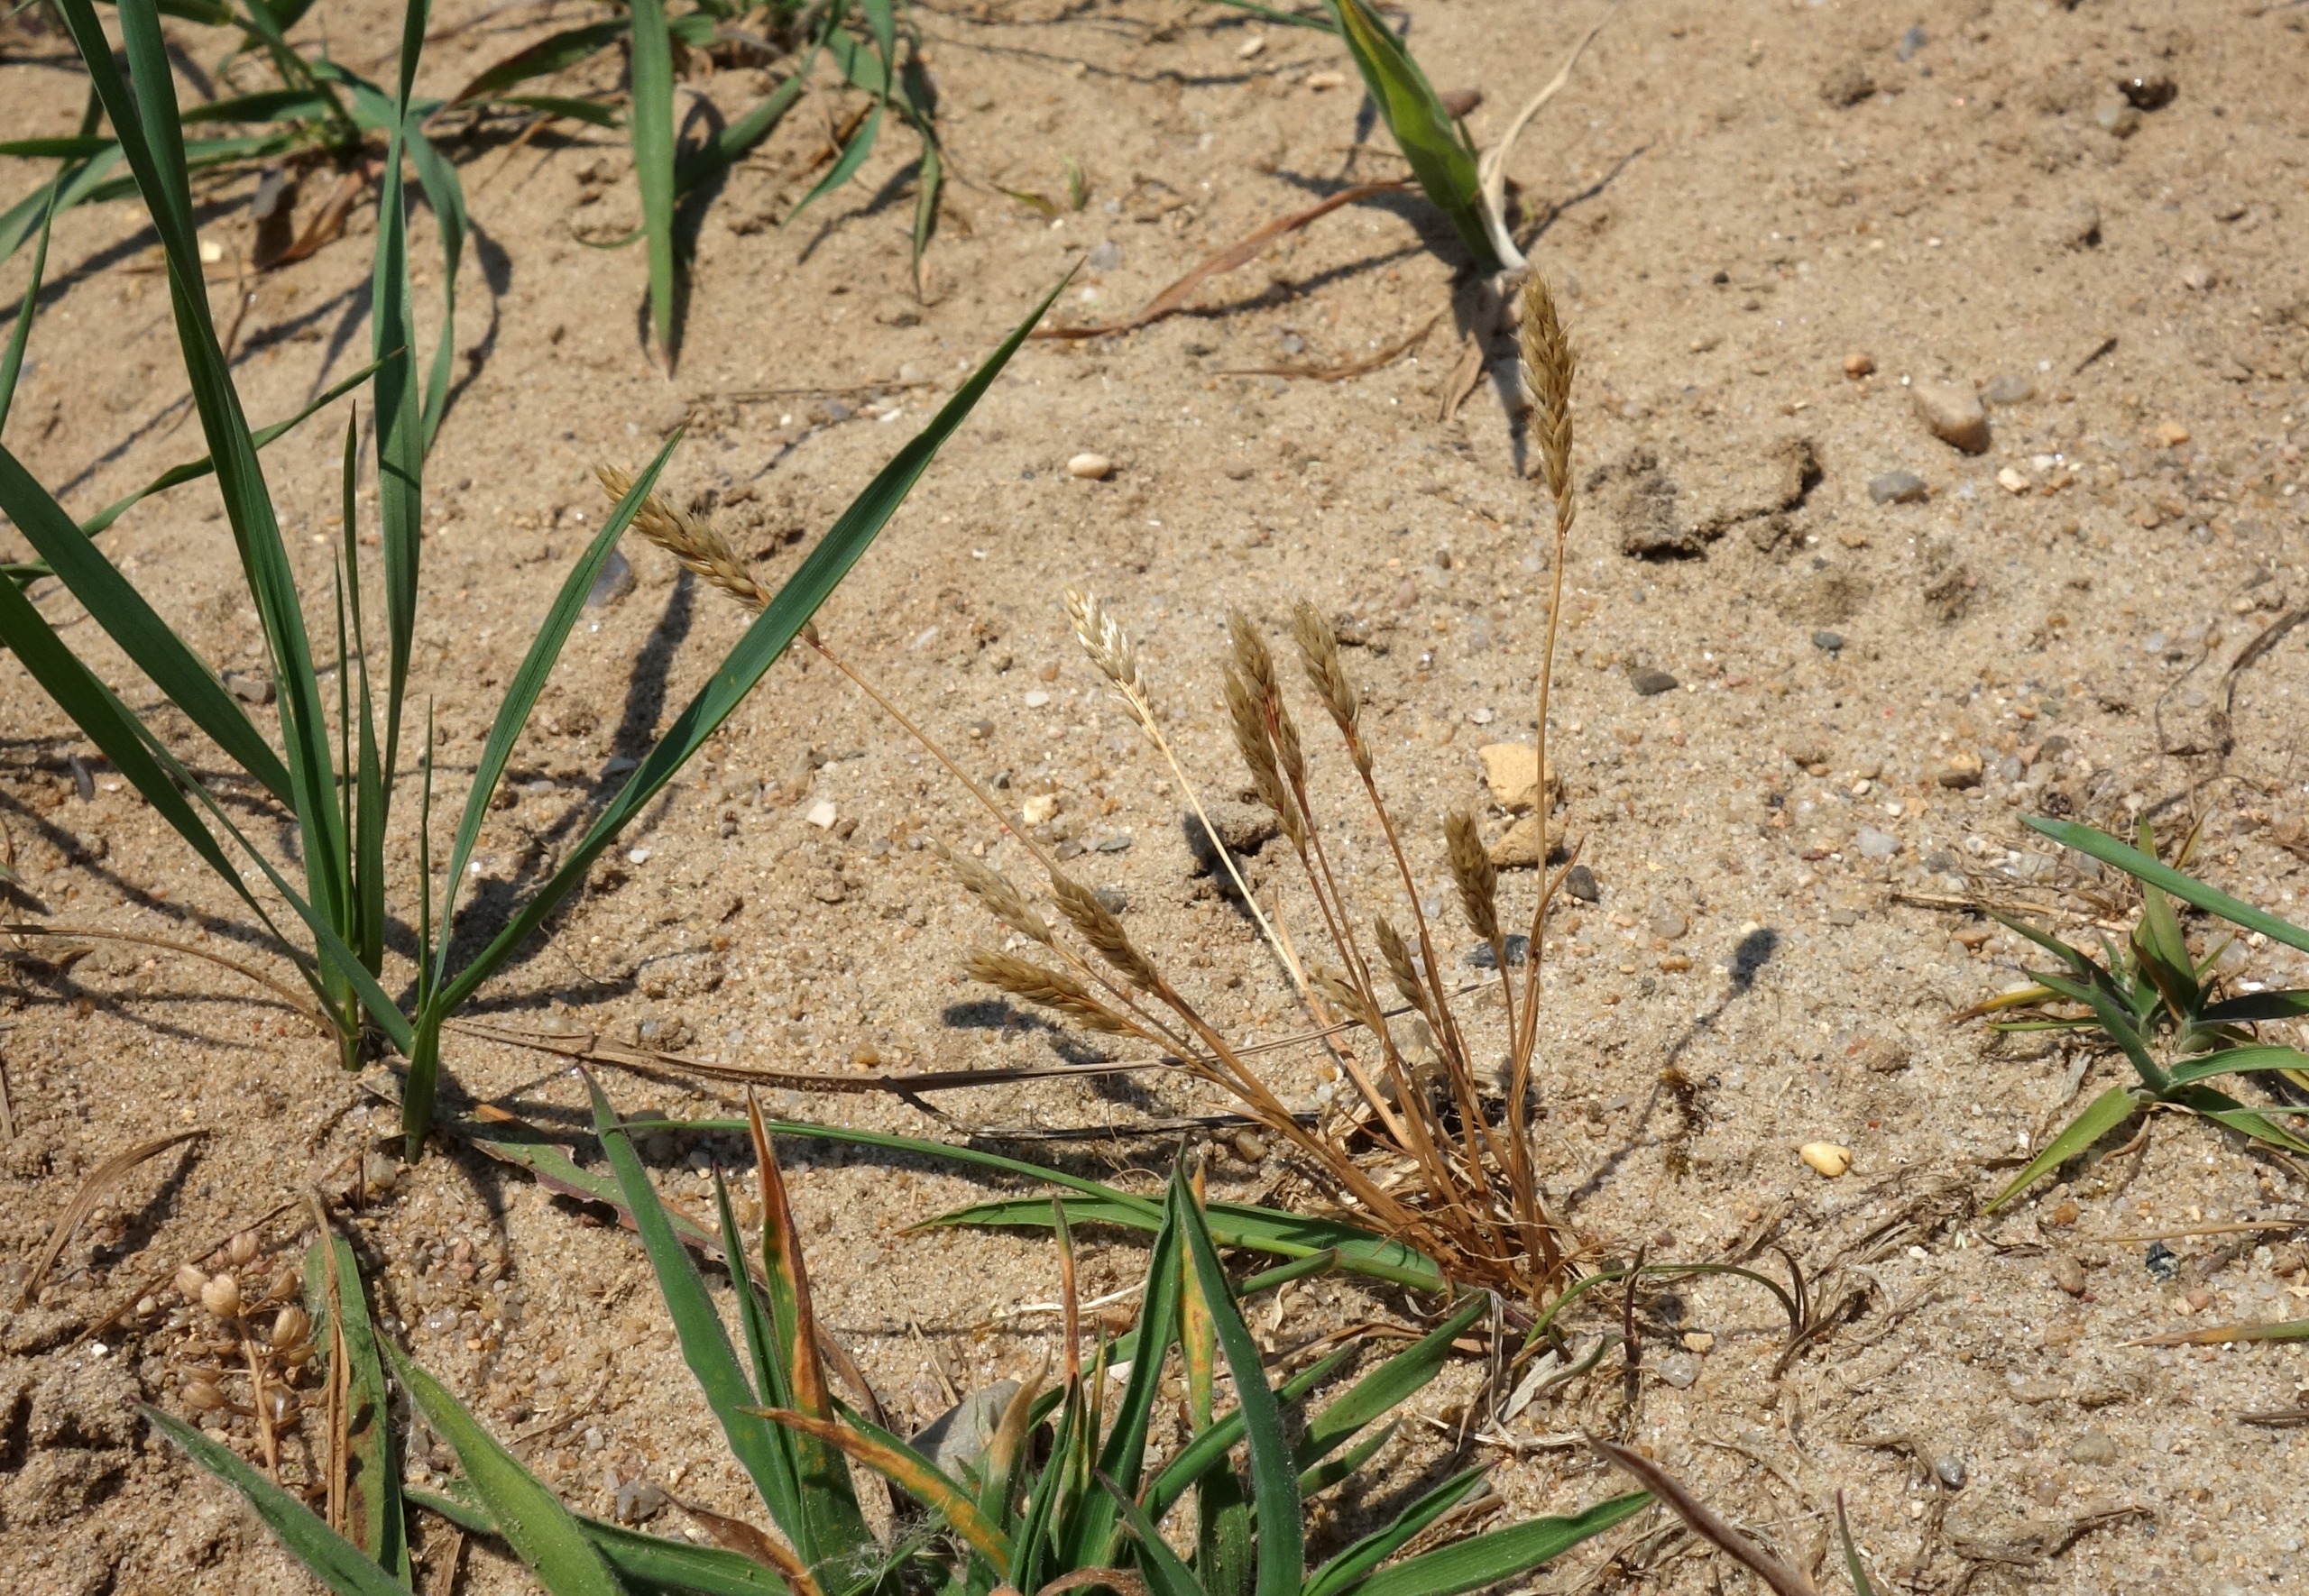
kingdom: Plantae
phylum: Tracheophyta
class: Liliopsida
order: Poales
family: Poaceae
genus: Aira
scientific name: Aira praecox
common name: Tidlig dværgbunke
